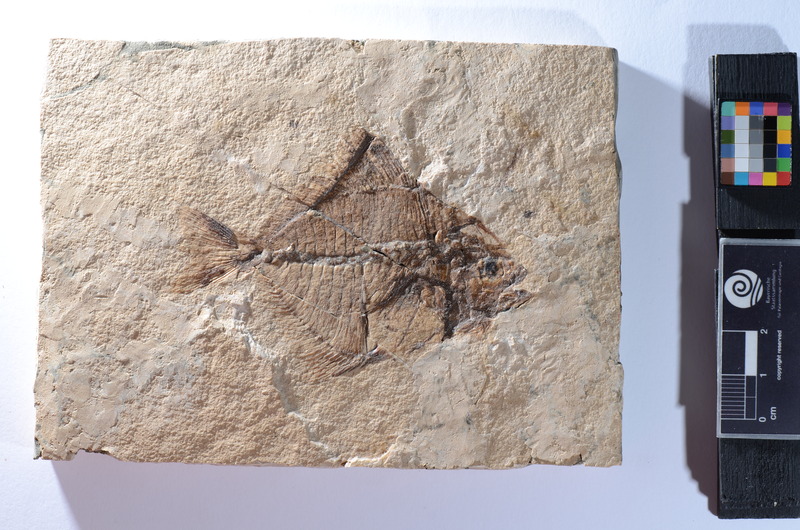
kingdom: Animalia
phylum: Chordata
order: Perciformes
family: Carangidae
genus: Trachinotus
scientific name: Trachinotus tenuiceps
